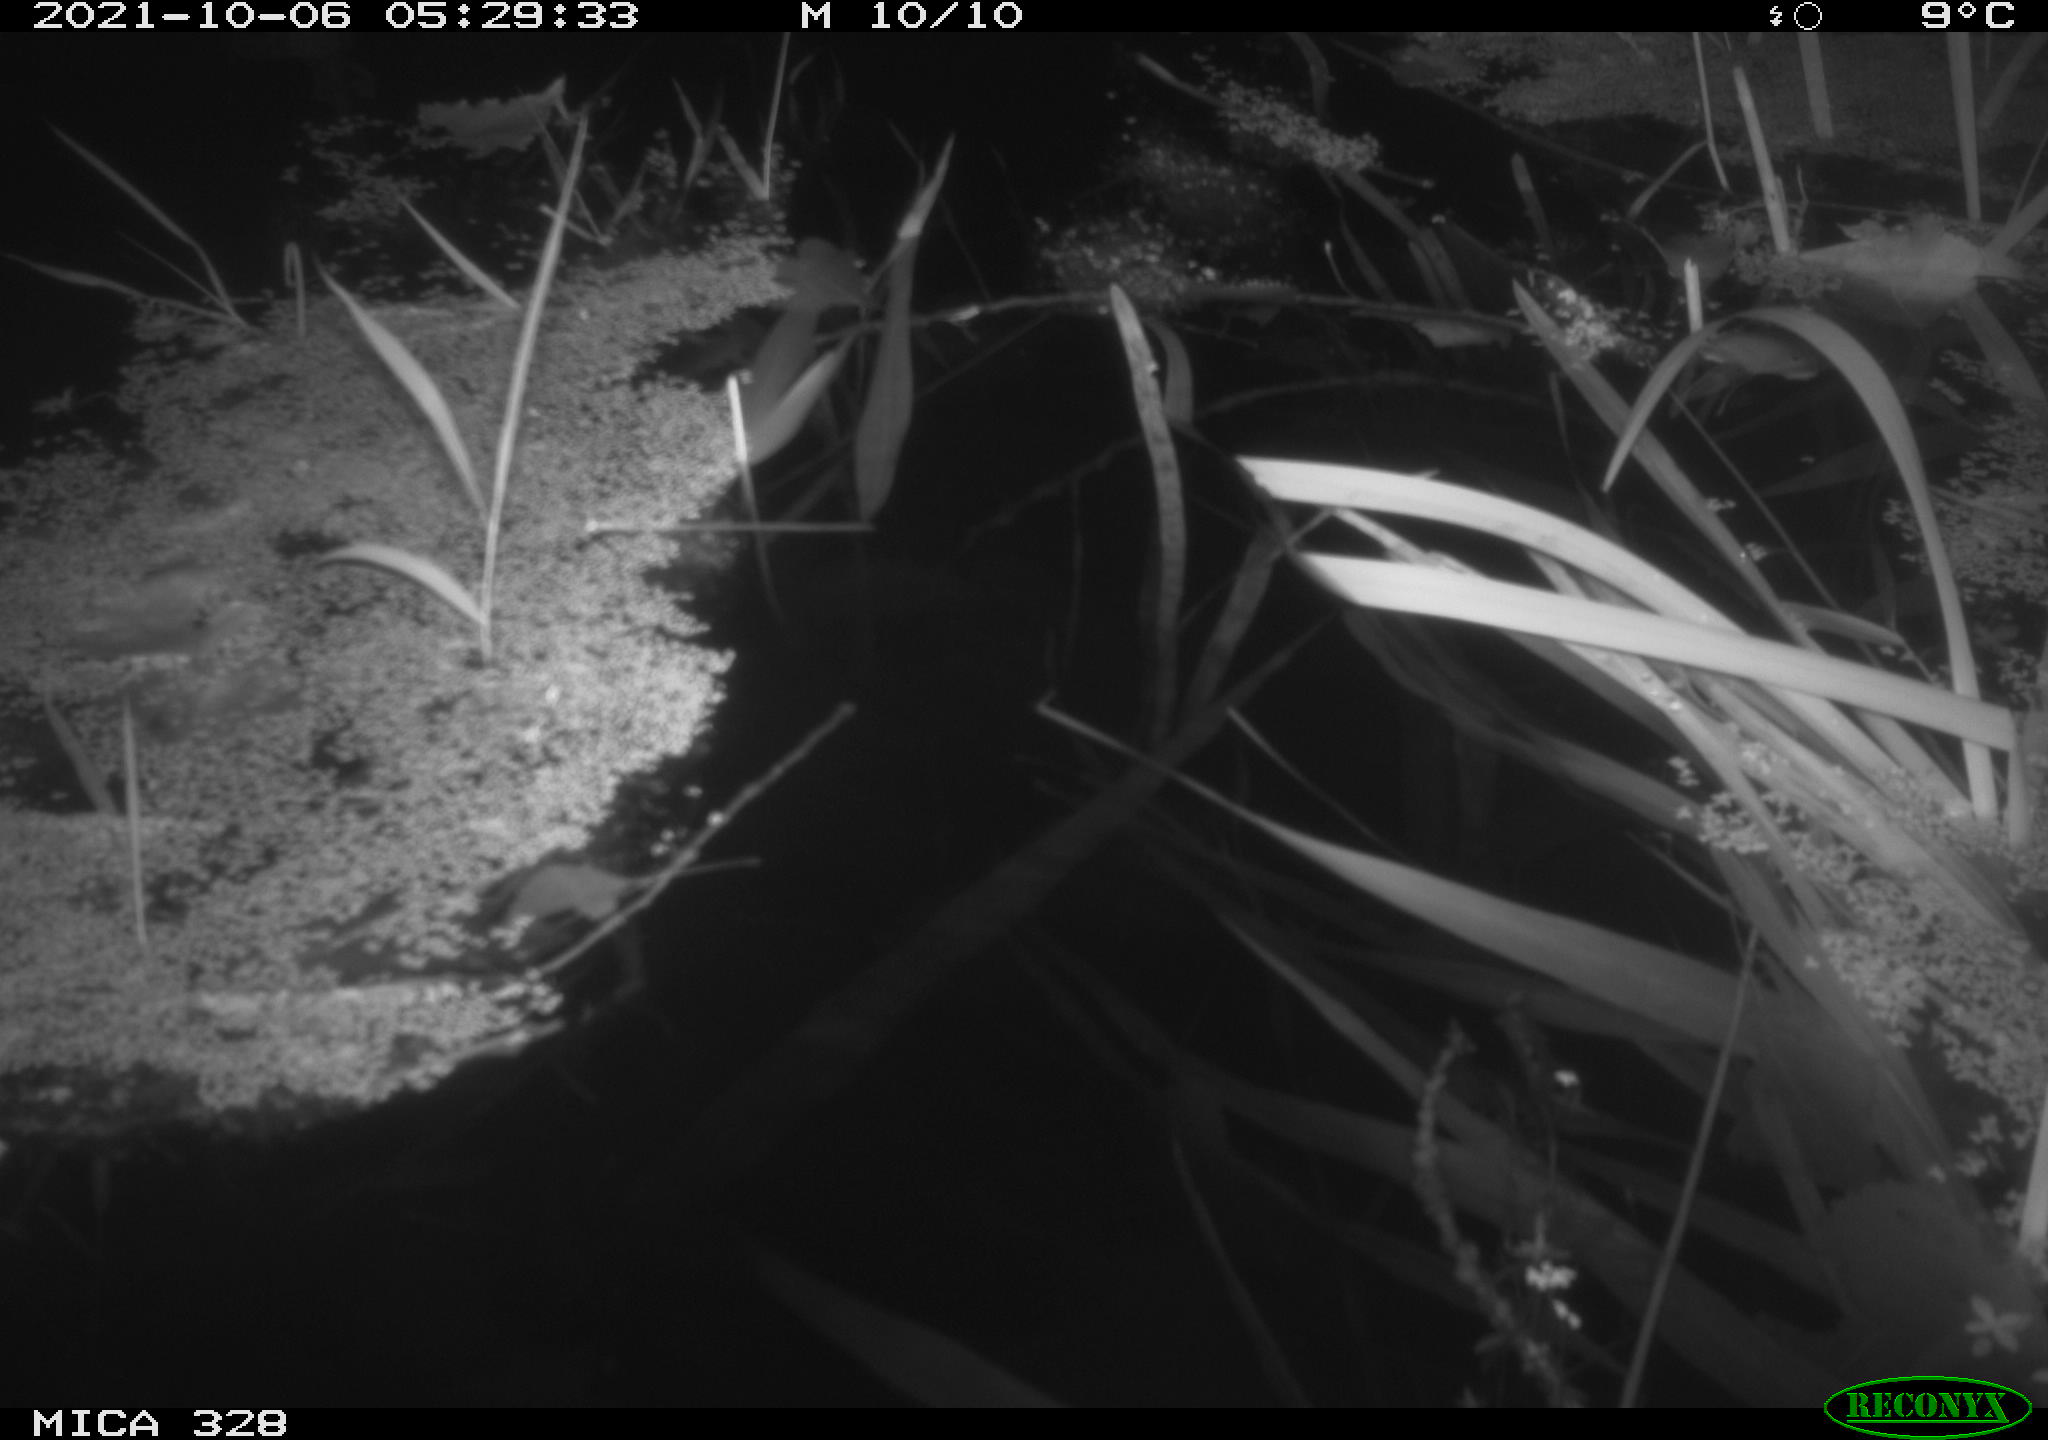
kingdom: Animalia
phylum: Chordata
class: Mammalia
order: Rodentia
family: Cricetidae
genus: Ondatra
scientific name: Ondatra zibethicus
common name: Muskrat
